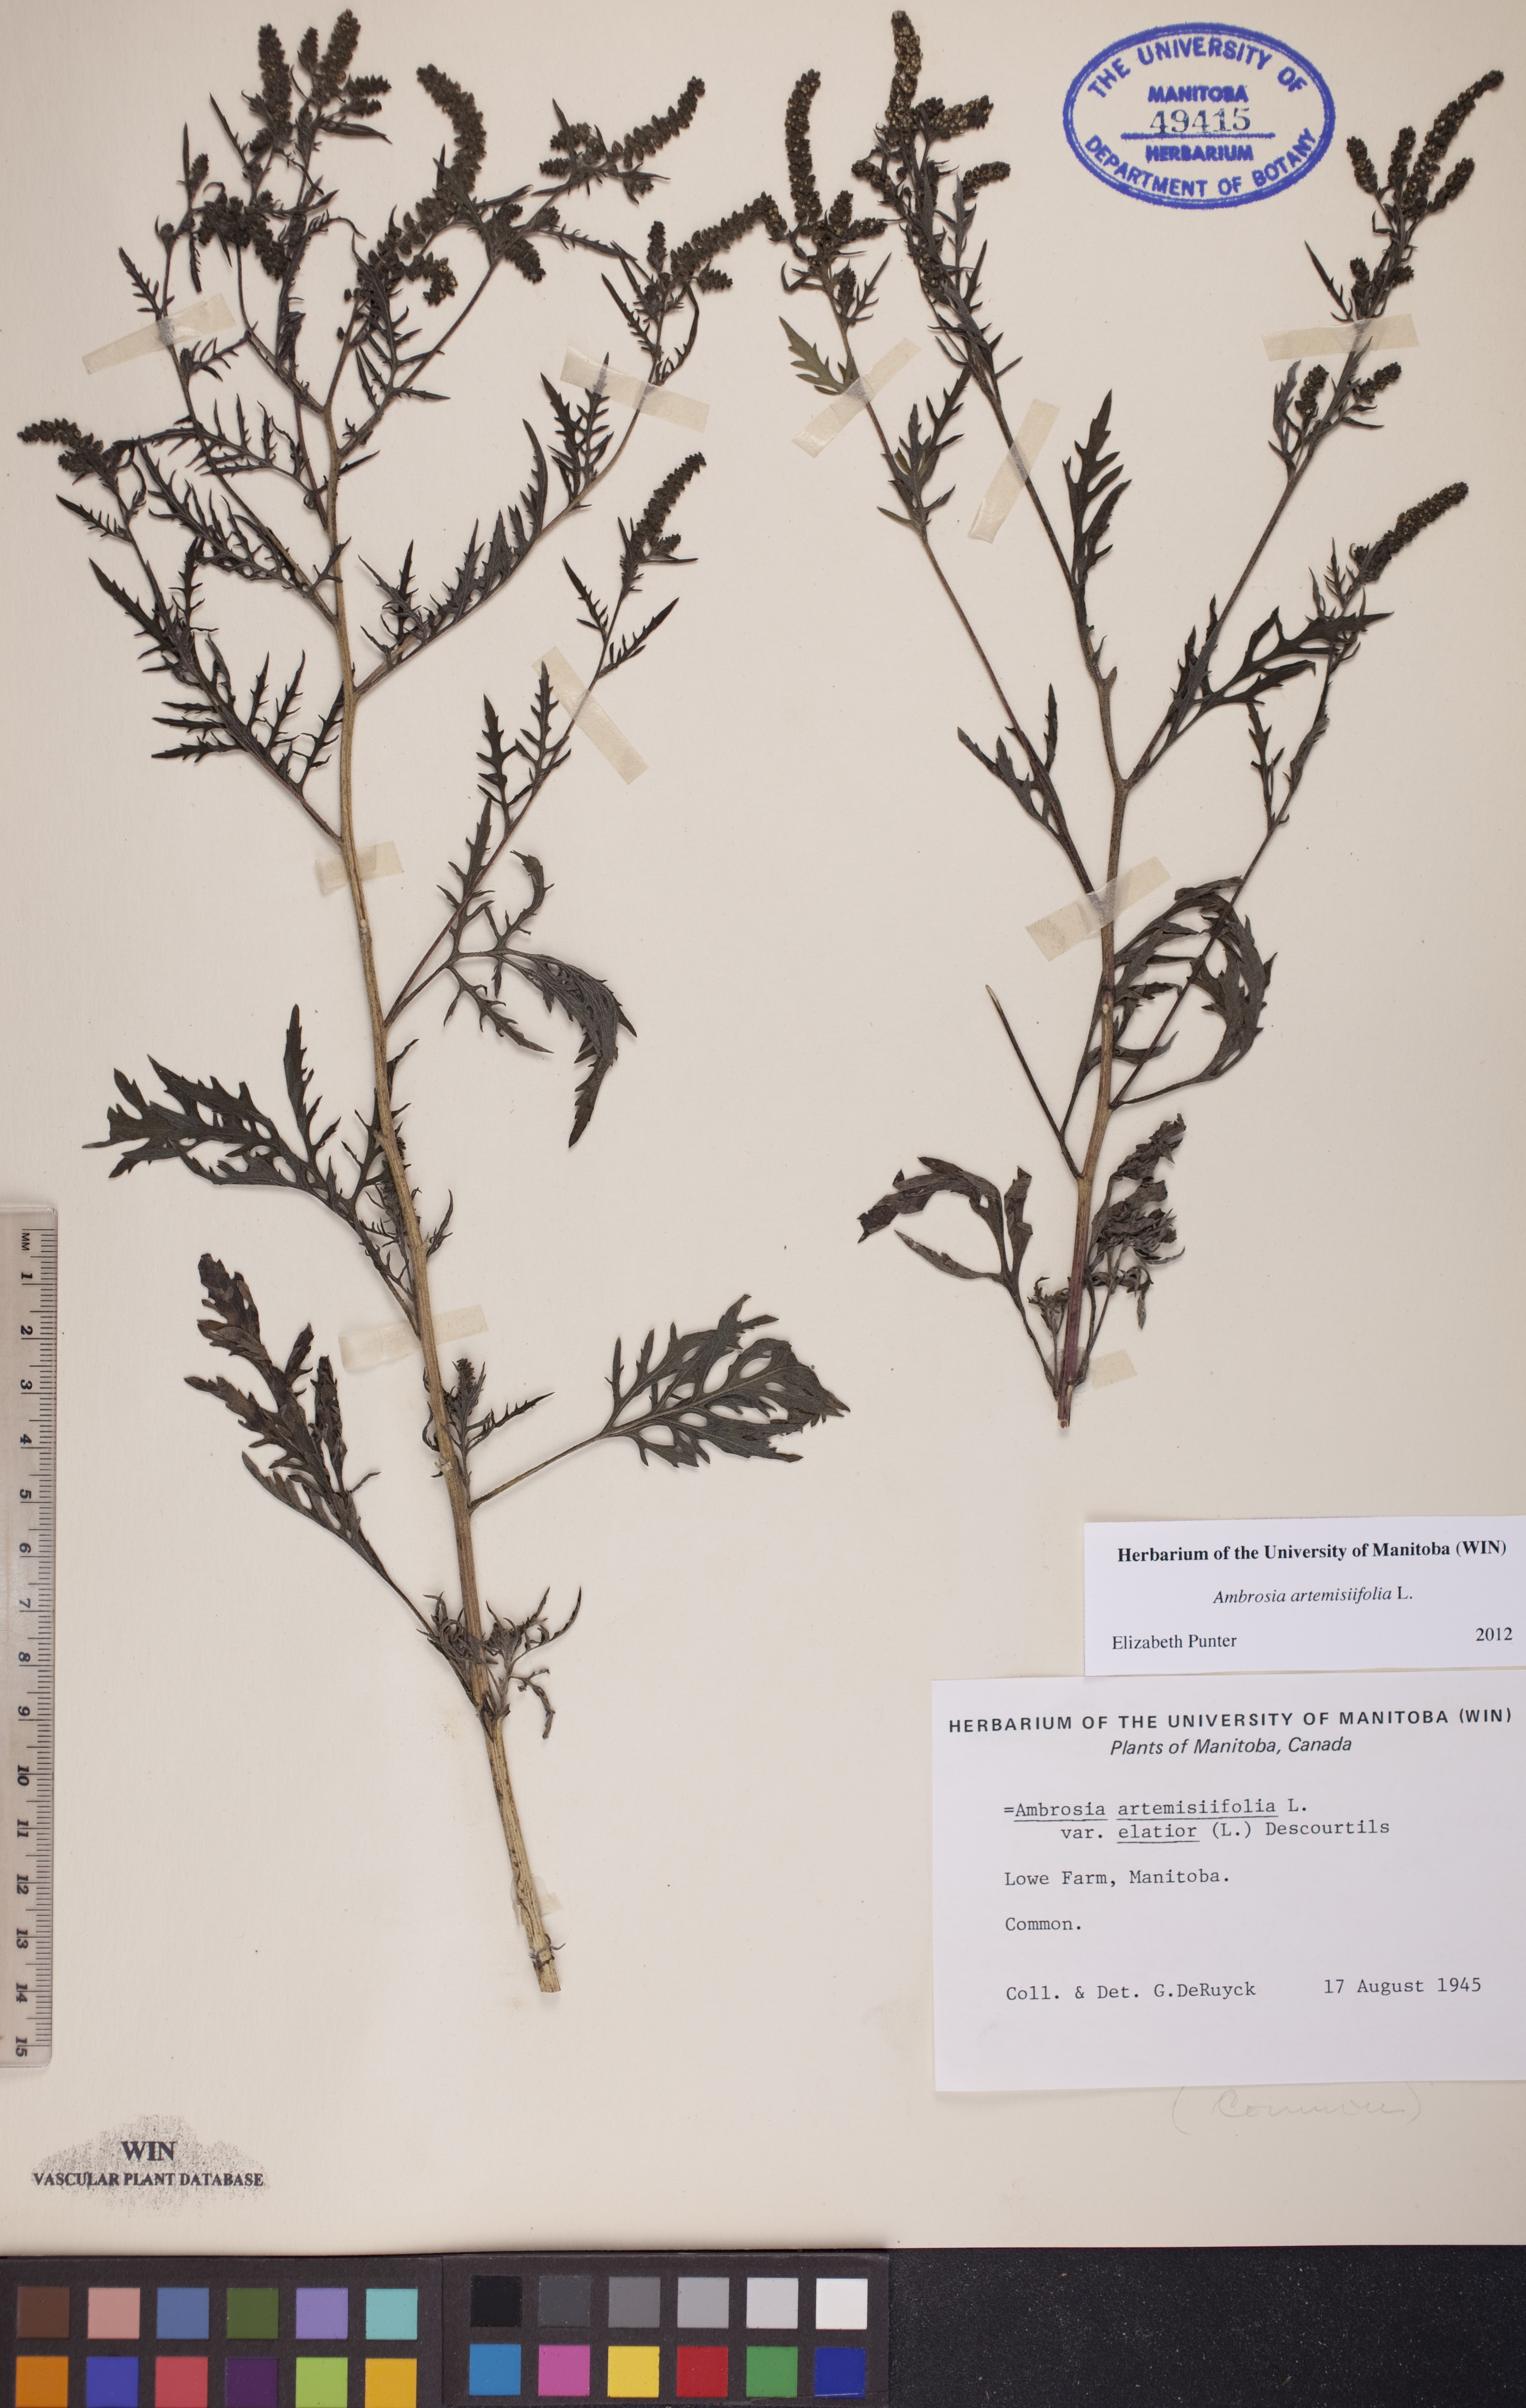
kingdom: Plantae
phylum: Tracheophyta
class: Magnoliopsida
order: Asterales
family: Asteraceae
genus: Ambrosia
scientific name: Ambrosia artemisiifolia
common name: Annual ragweed
